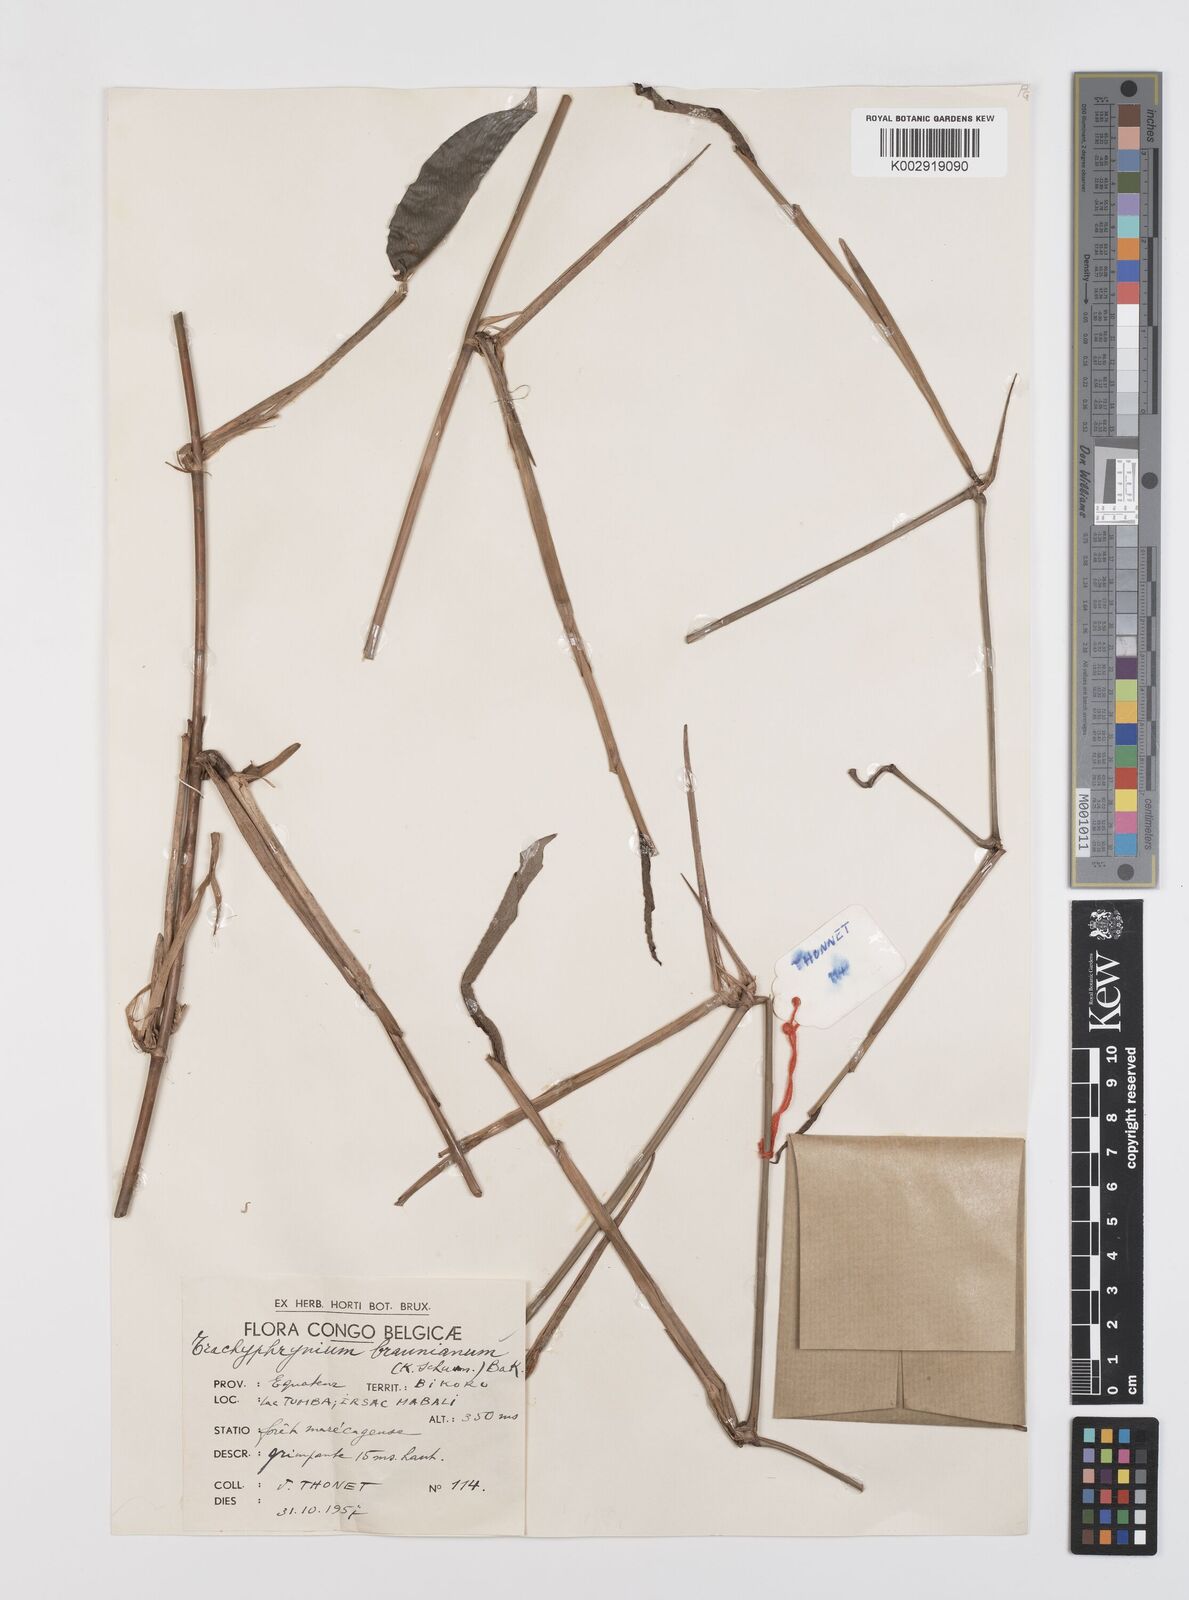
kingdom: Plantae
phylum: Tracheophyta
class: Liliopsida
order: Zingiberales
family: Marantaceae
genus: Trachyphrynium
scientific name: Trachyphrynium braunianum
